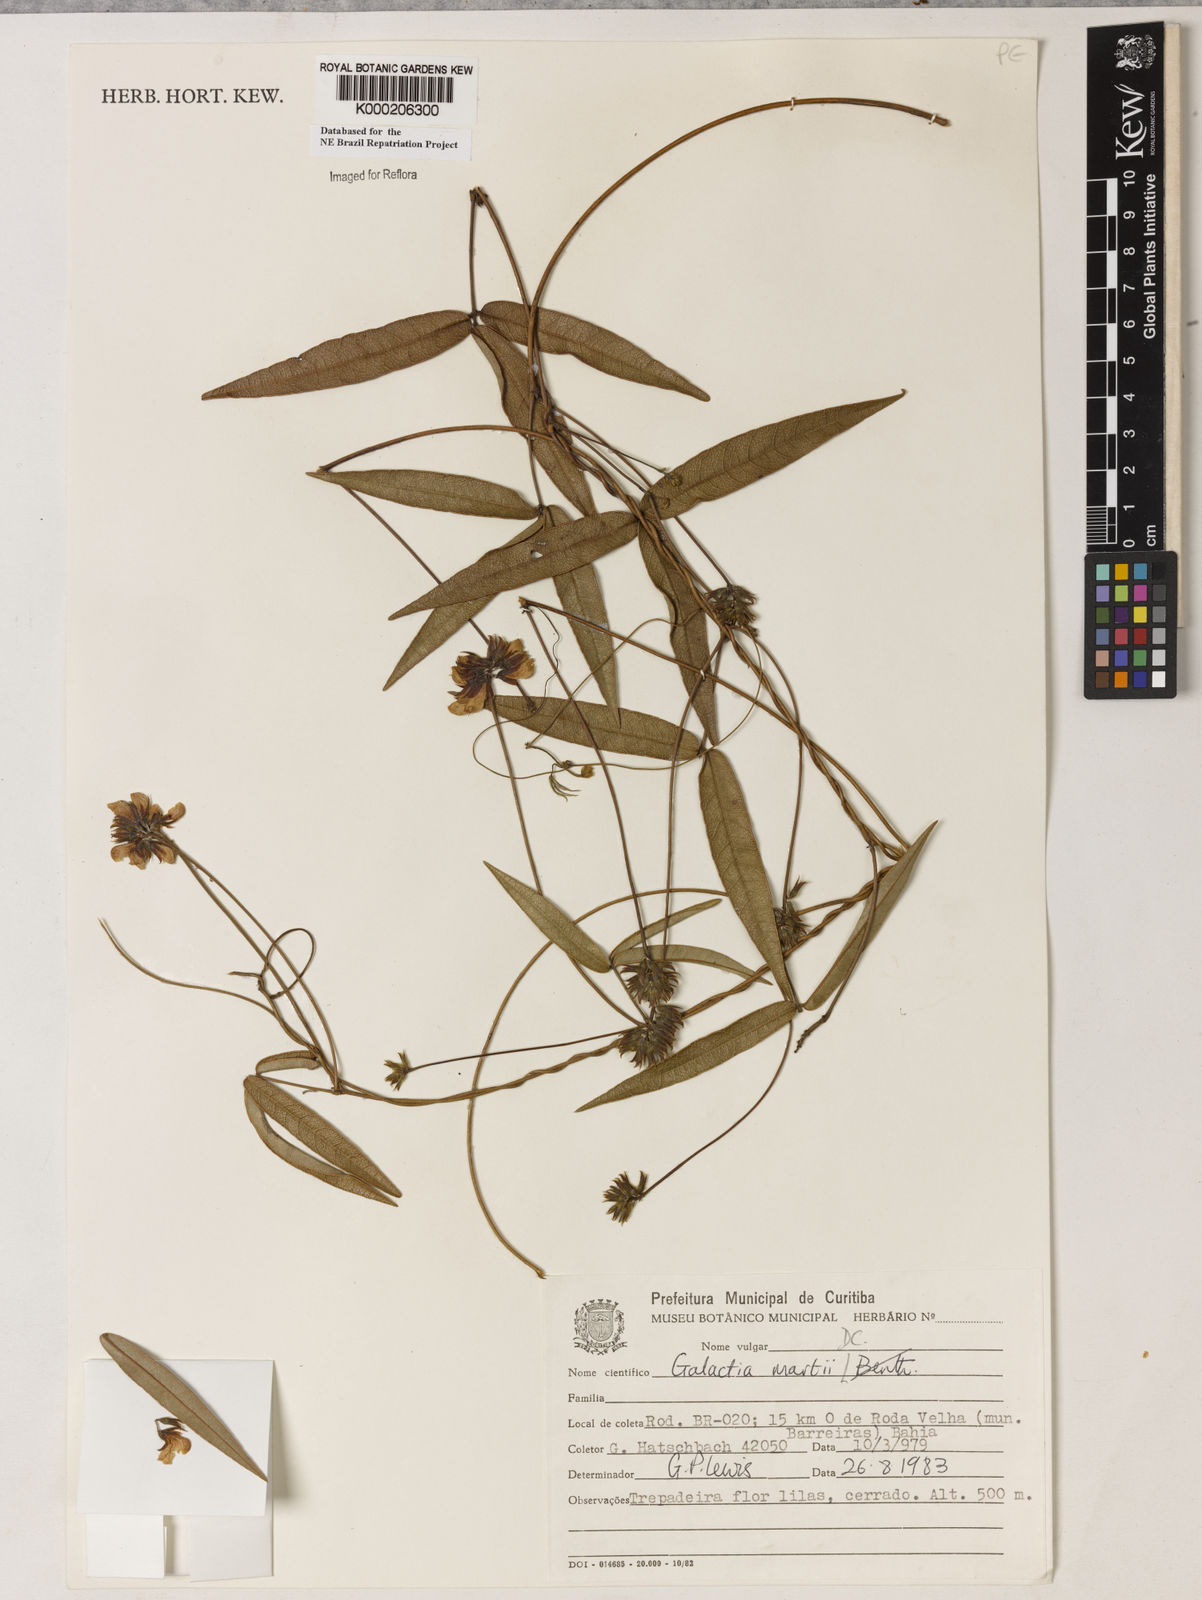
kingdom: Plantae
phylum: Tracheophyta
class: Magnoliopsida
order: Fabales
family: Fabaceae
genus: Betencourtia
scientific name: Betencourtia martii
